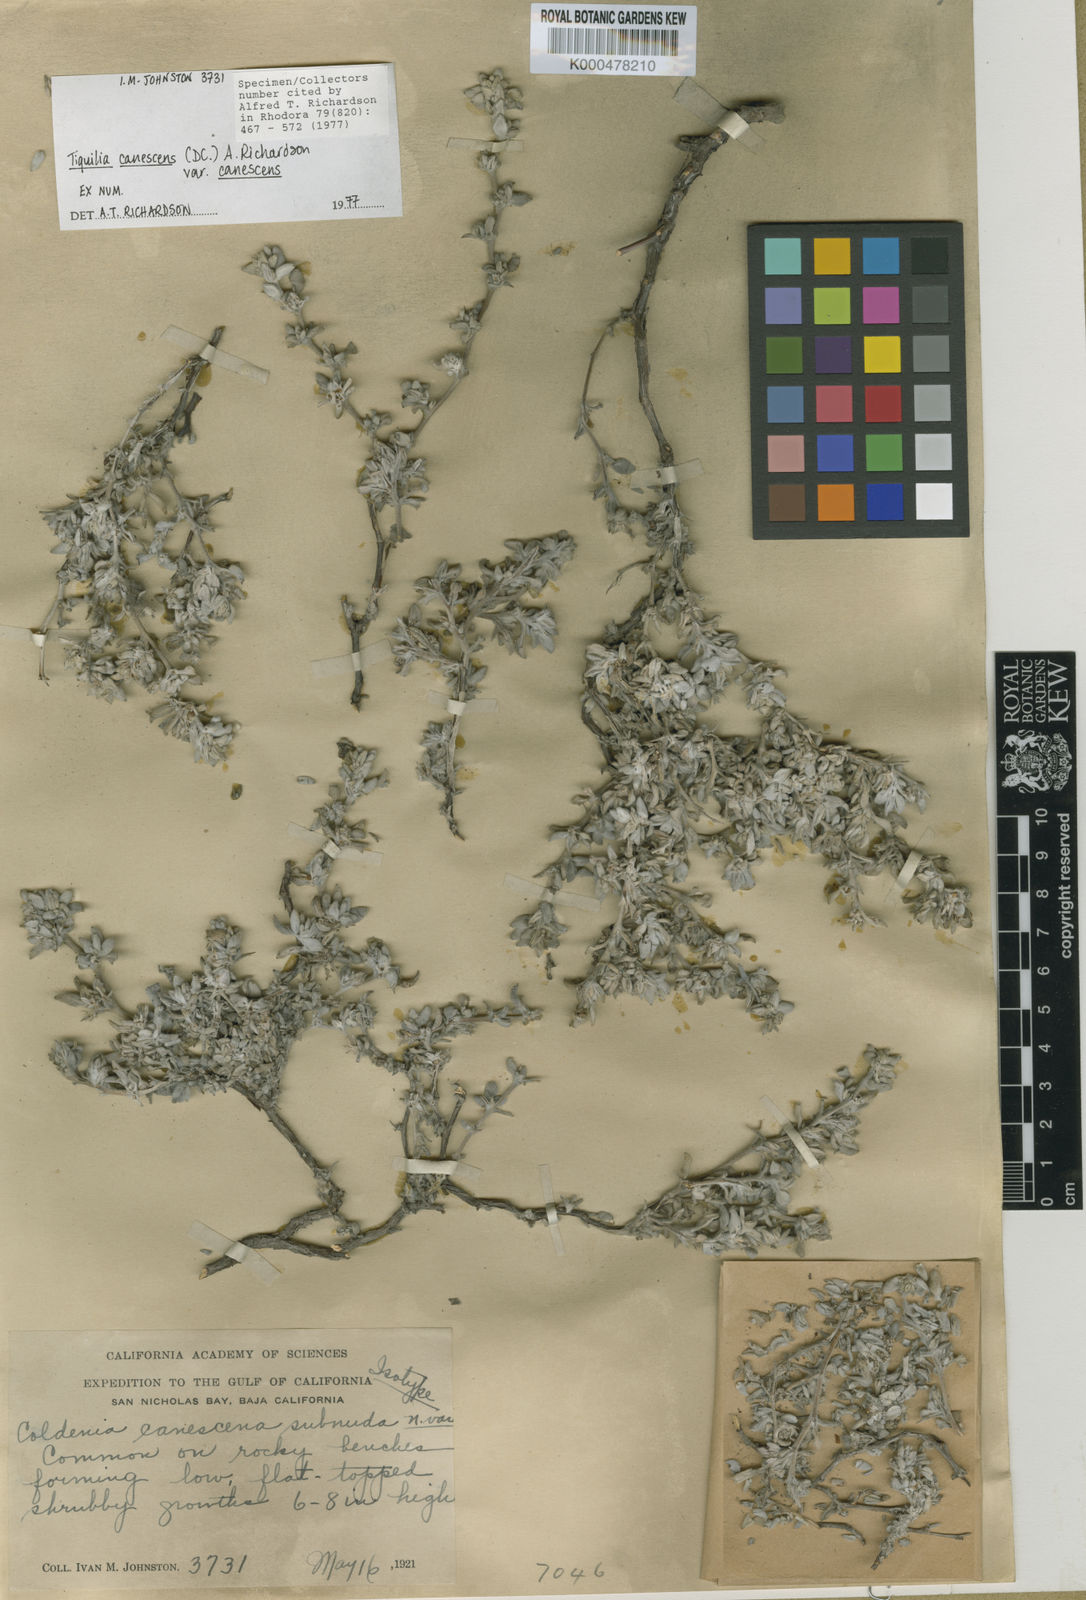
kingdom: Plantae
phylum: Tracheophyta
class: Magnoliopsida
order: Boraginales
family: Ehretiaceae
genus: Tiquilia
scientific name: Tiquilia canescens
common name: Hairy tiquilia
